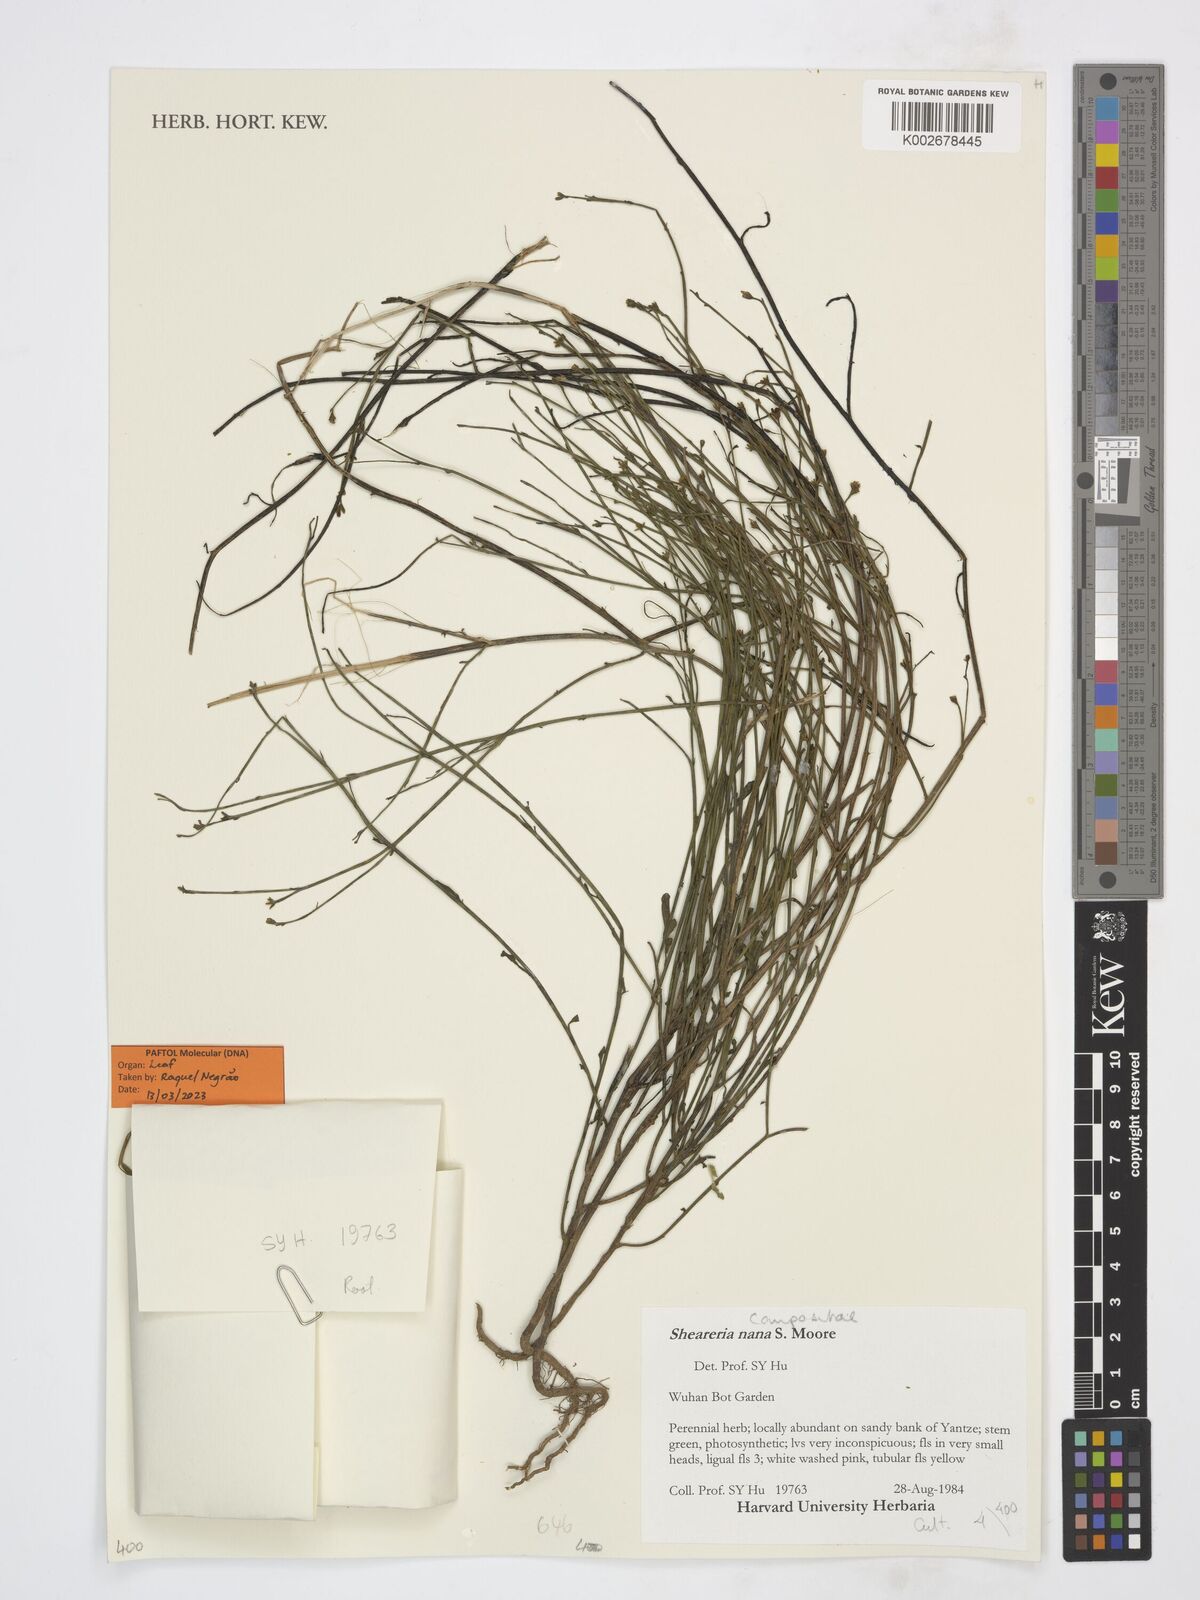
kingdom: Plantae
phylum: Tracheophyta
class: Magnoliopsida
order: Asterales
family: Asteraceae
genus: Sheareria
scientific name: Sheareria nana
